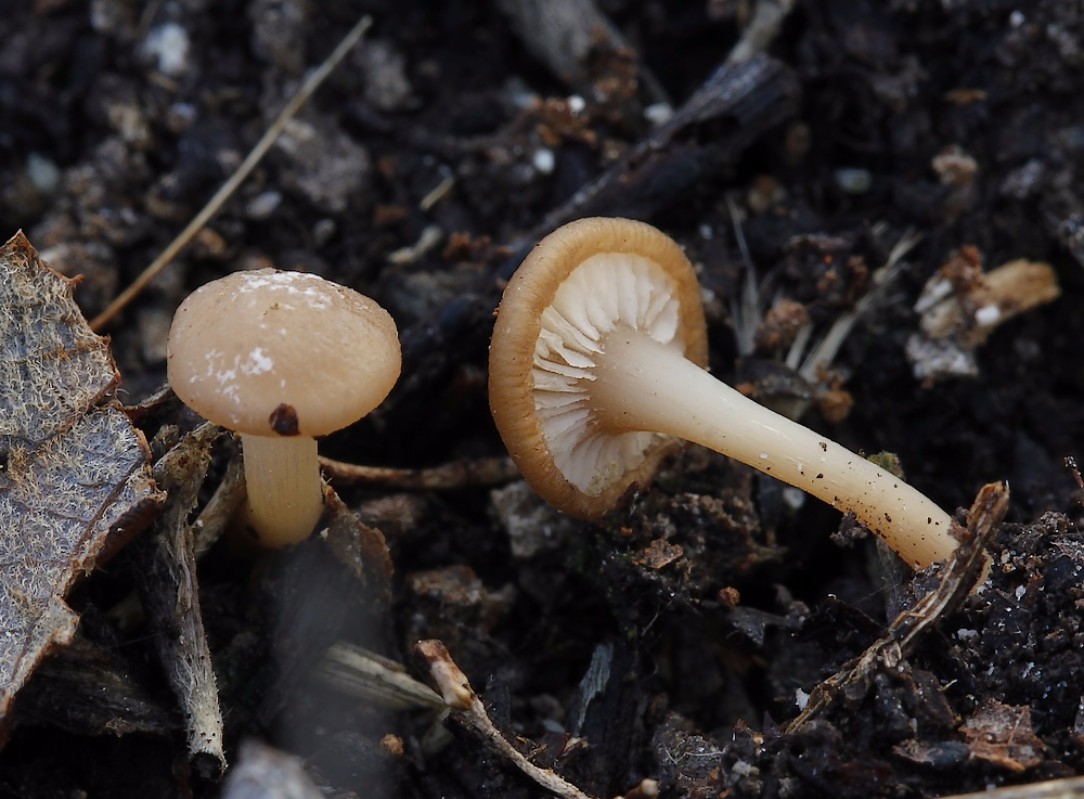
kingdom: Fungi
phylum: Basidiomycota
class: Agaricomycetes
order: Agaricales
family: Tricholomataceae
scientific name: Tricholomataceae
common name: ridderhatfamilien
